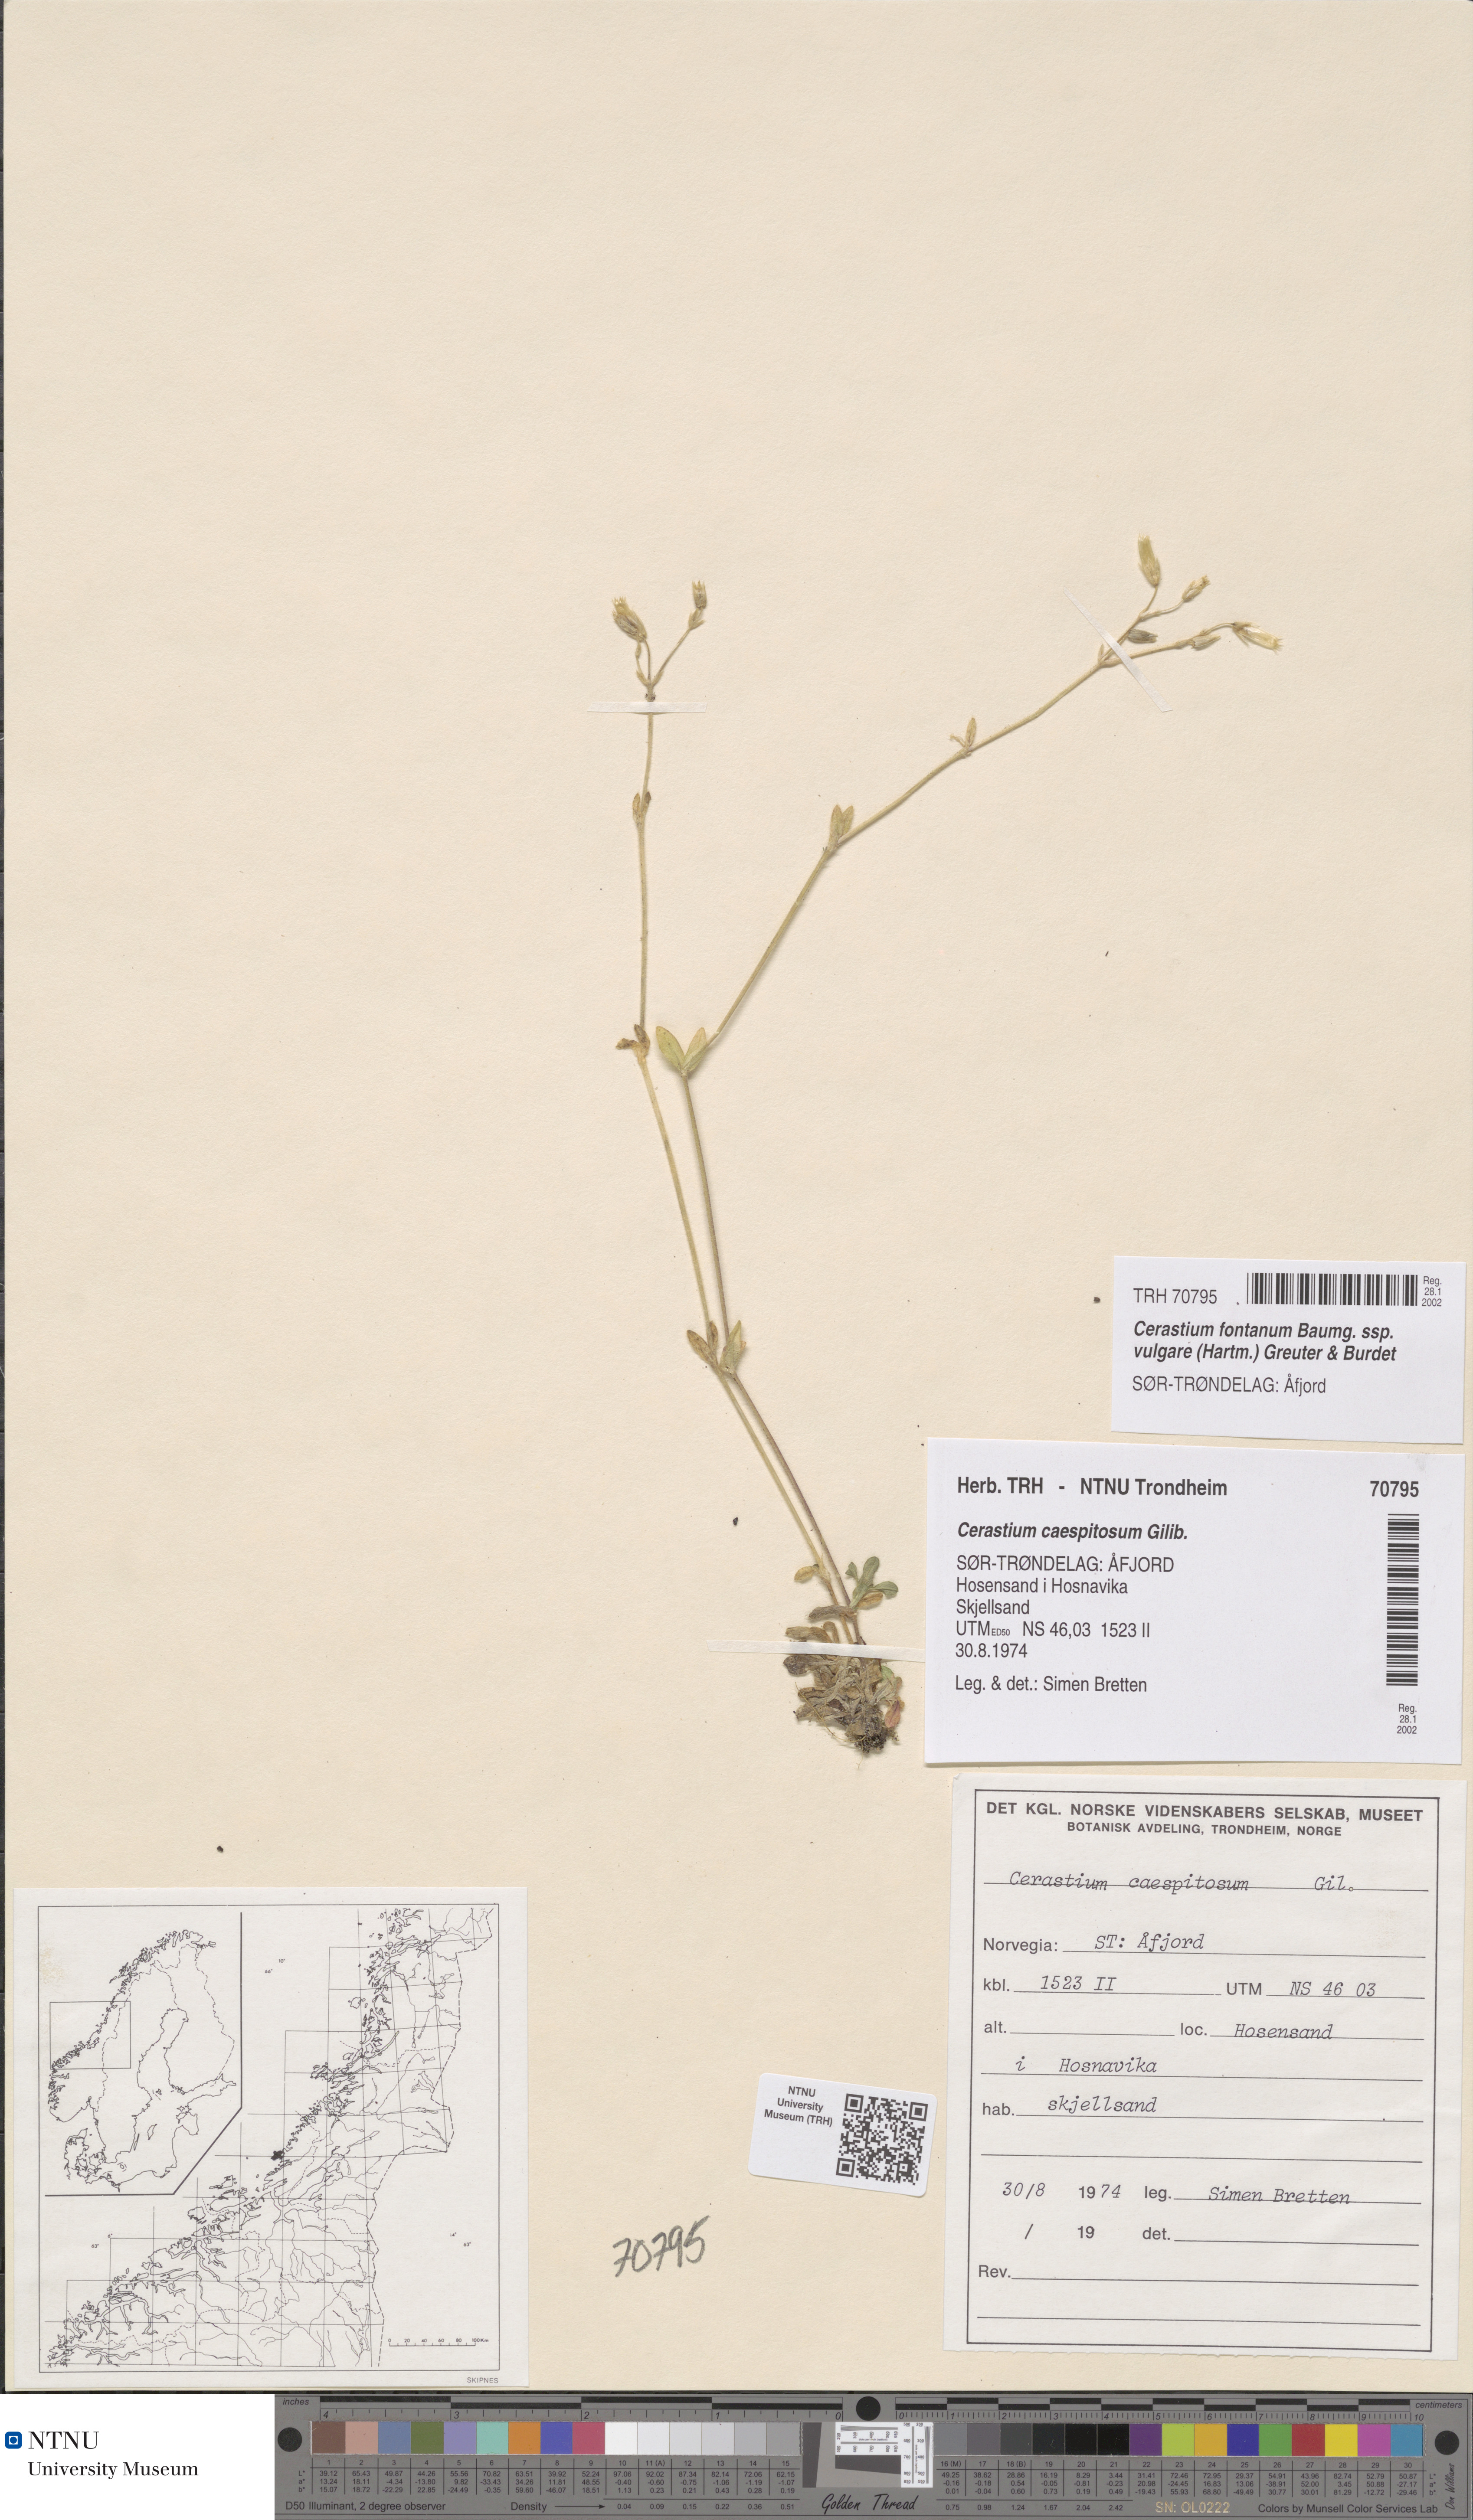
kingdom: Plantae
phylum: Tracheophyta
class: Magnoliopsida
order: Caryophyllales
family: Caryophyllaceae
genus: Cerastium
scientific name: Cerastium holosteoides
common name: Big chickweed
